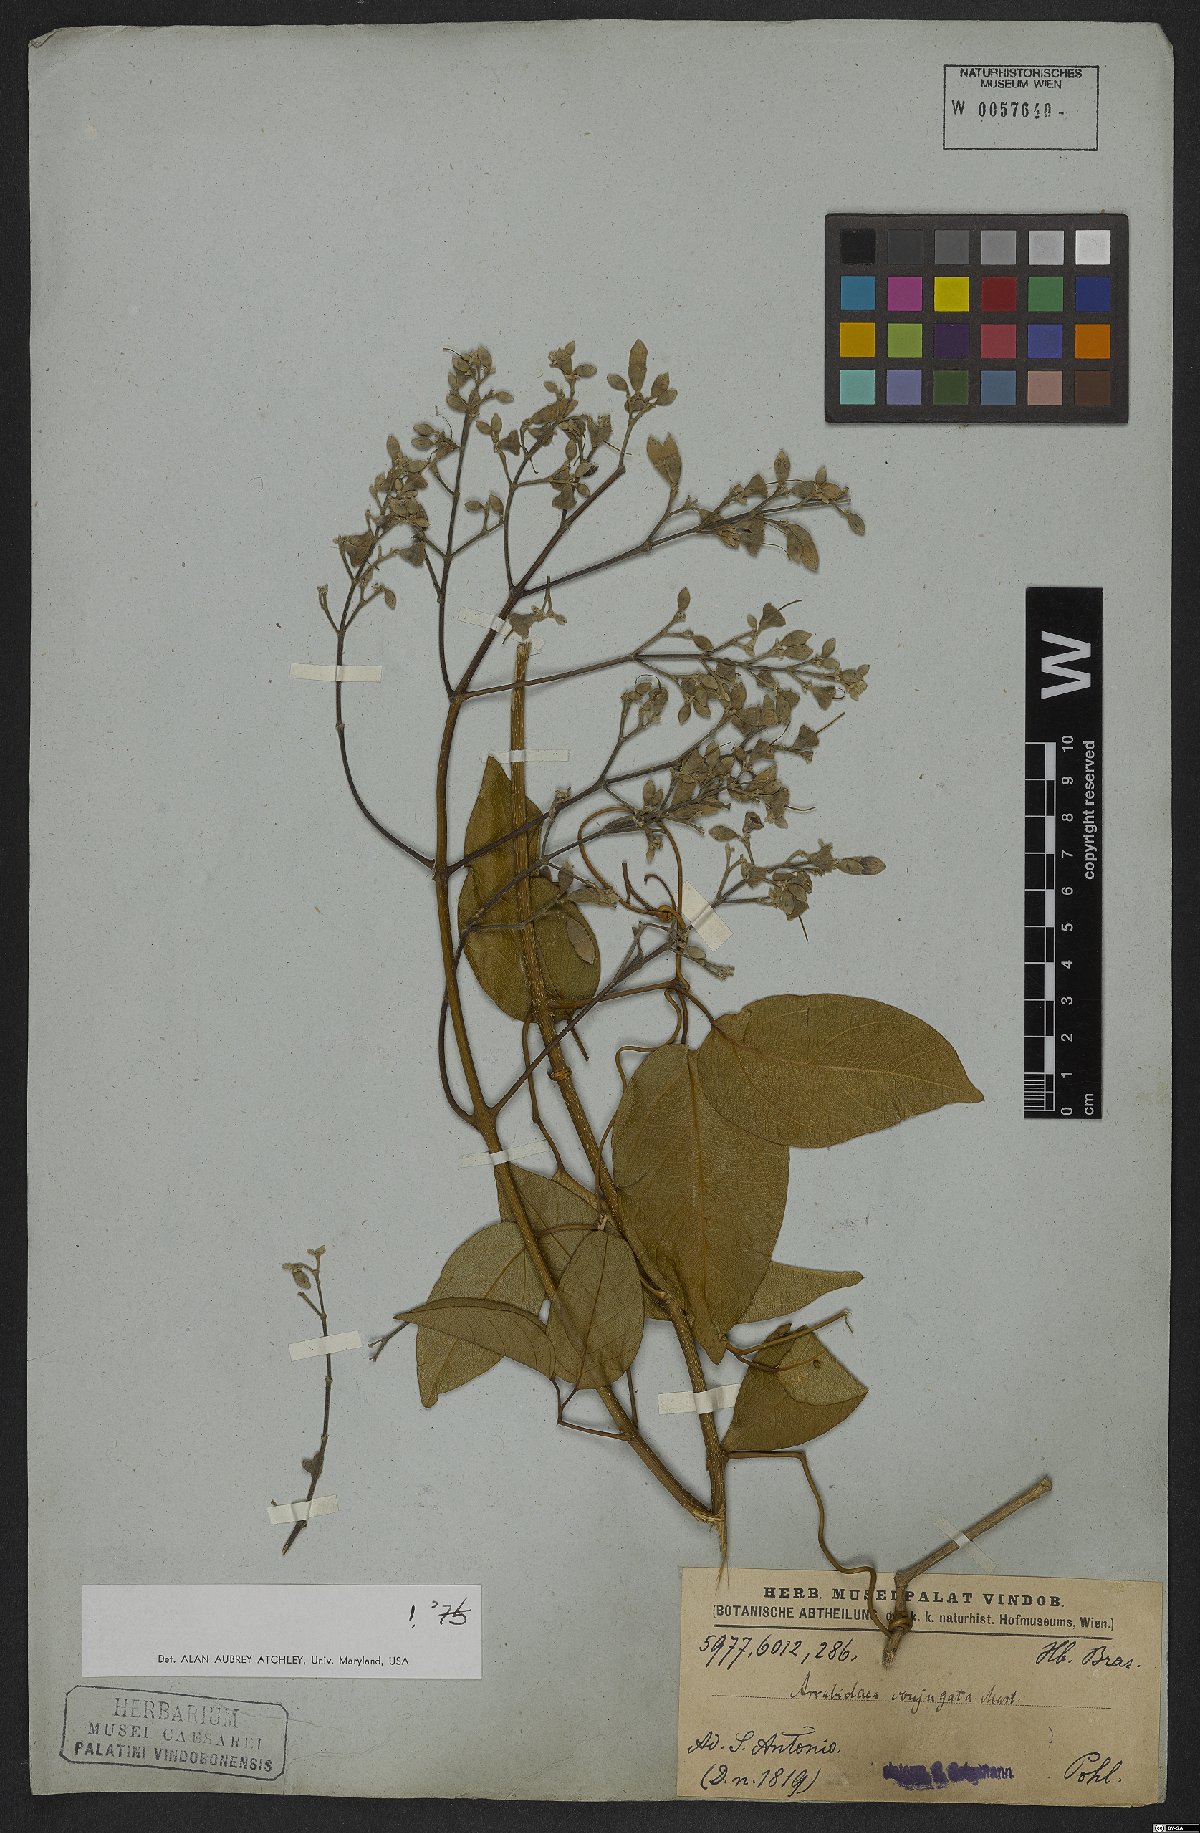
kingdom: Plantae
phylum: Tracheophyta
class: Magnoliopsida
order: Lamiales
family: Bignoniaceae
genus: Fridericia
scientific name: Fridericia conjugata
